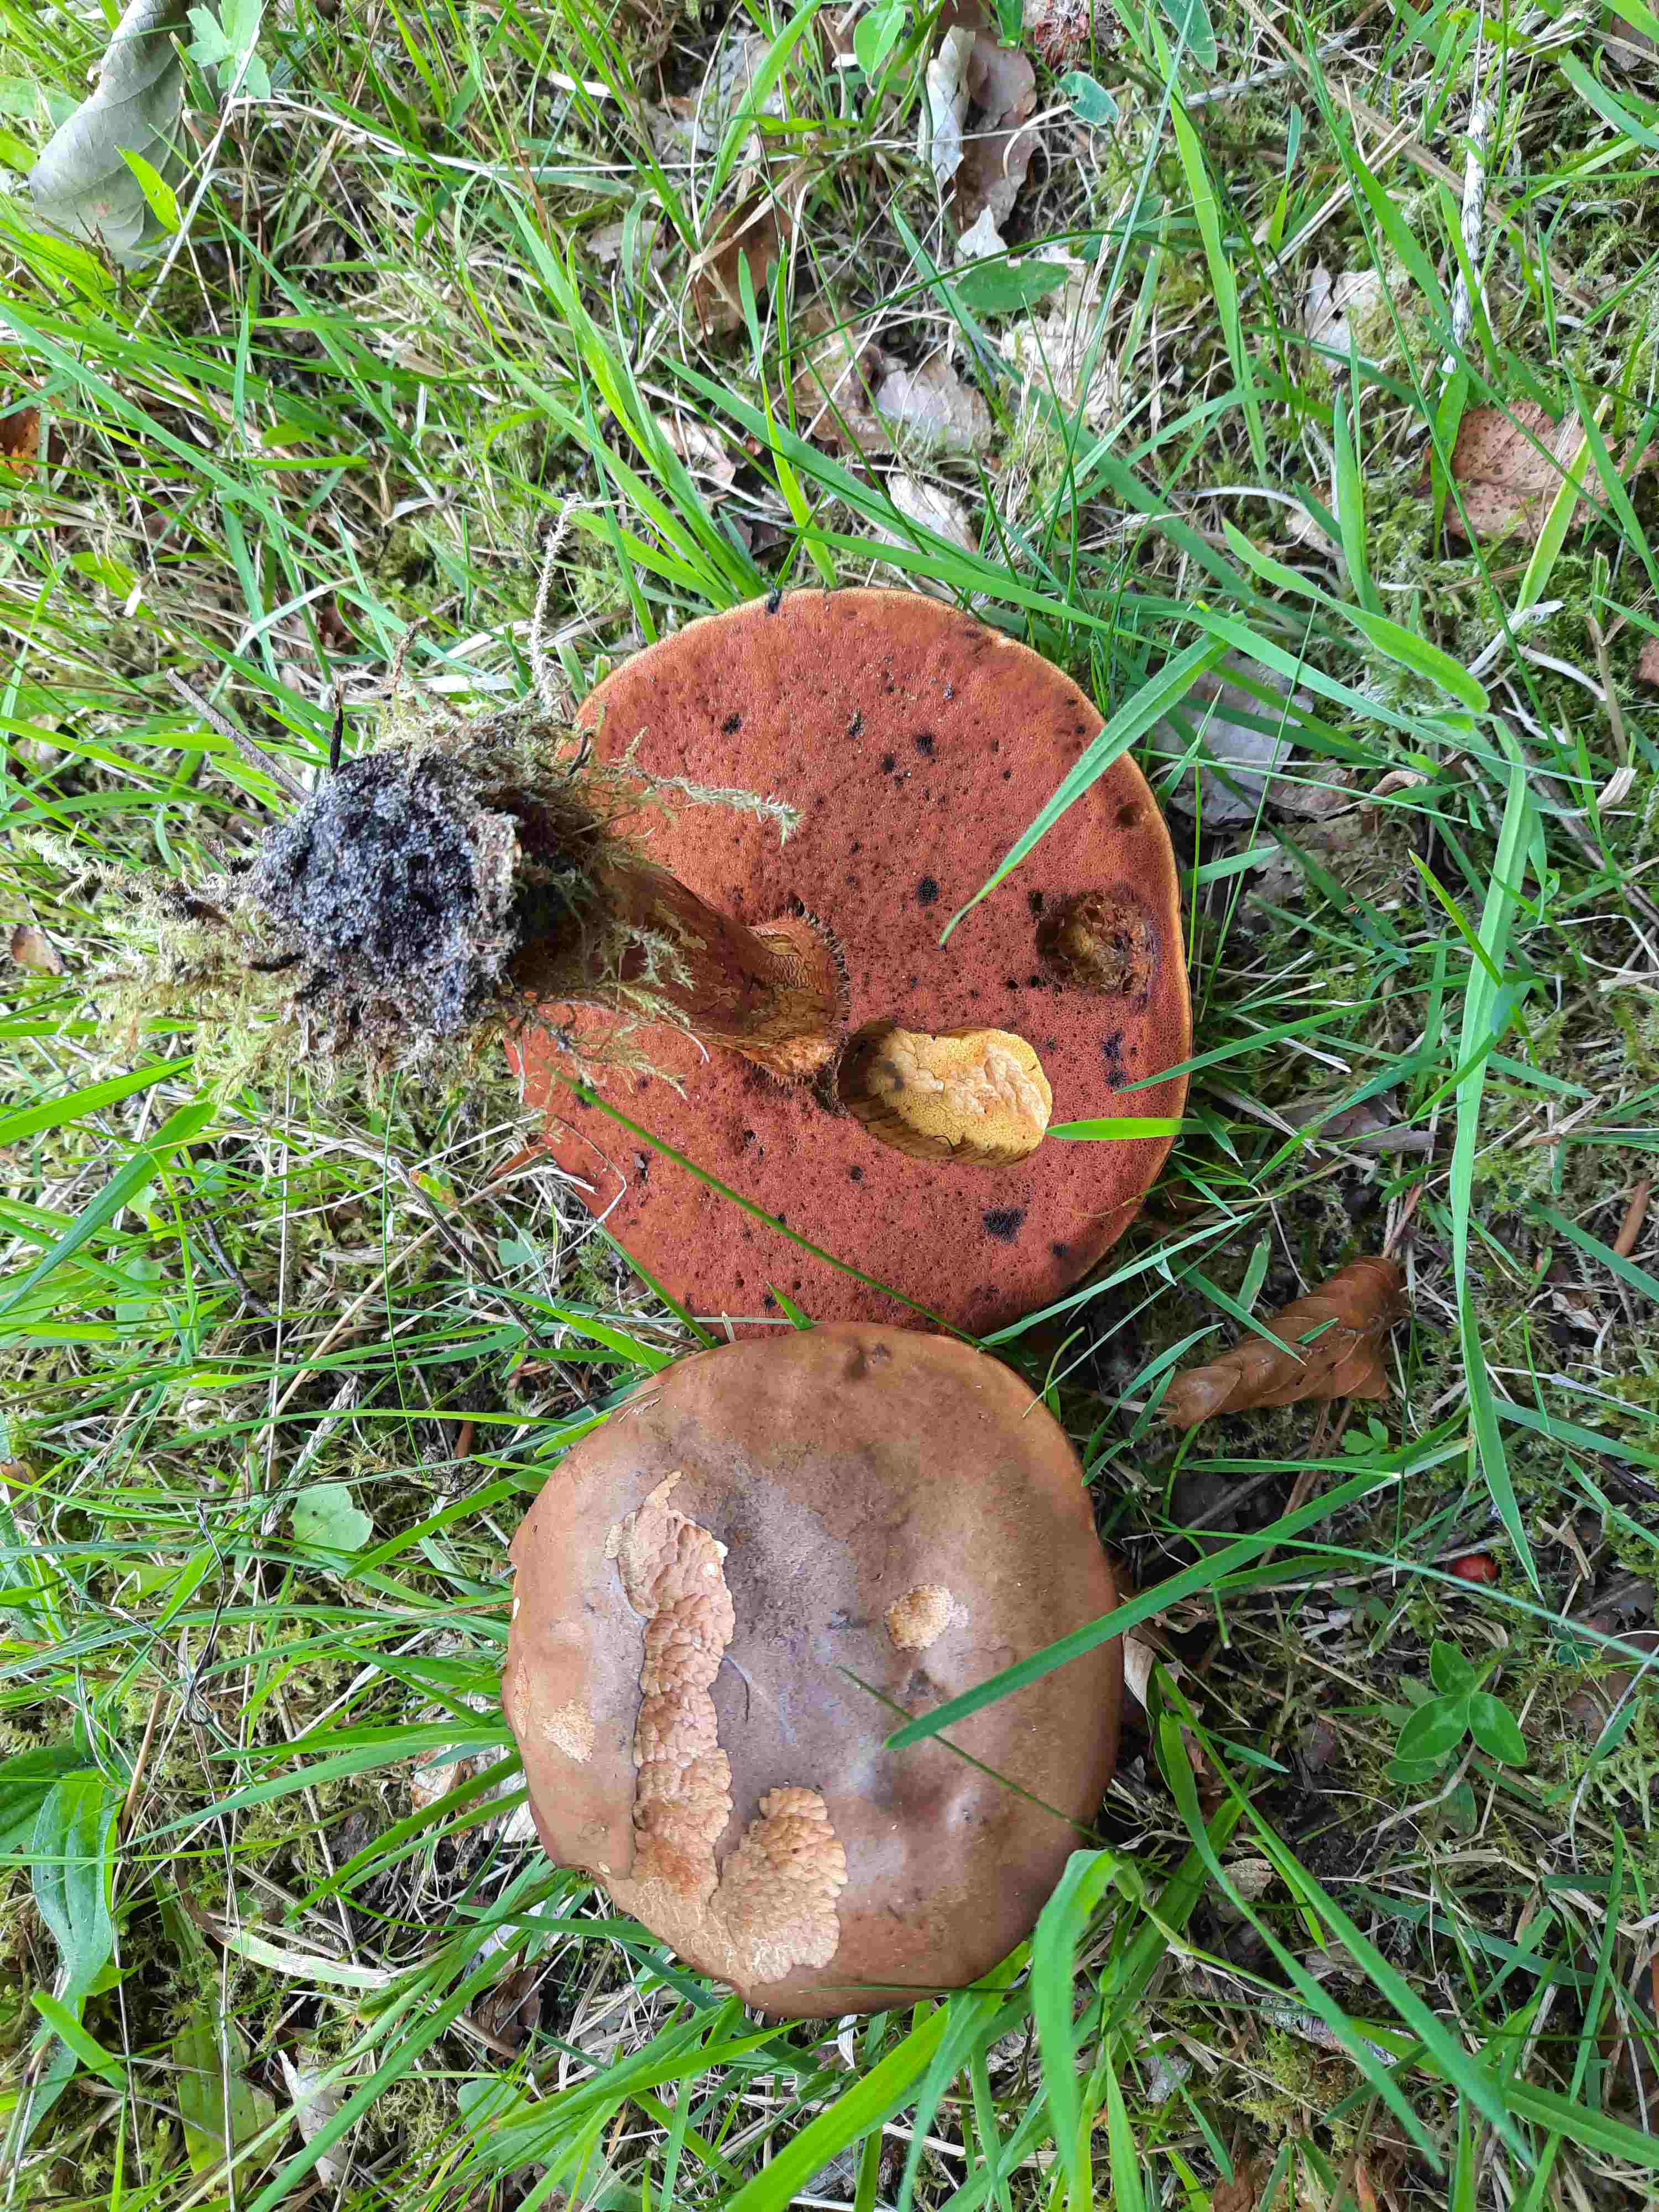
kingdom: Fungi
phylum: Basidiomycota
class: Agaricomycetes
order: Boletales
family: Boletaceae
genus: Neoboletus
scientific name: Neoboletus erythropus
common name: punktstokket indigorørhat
